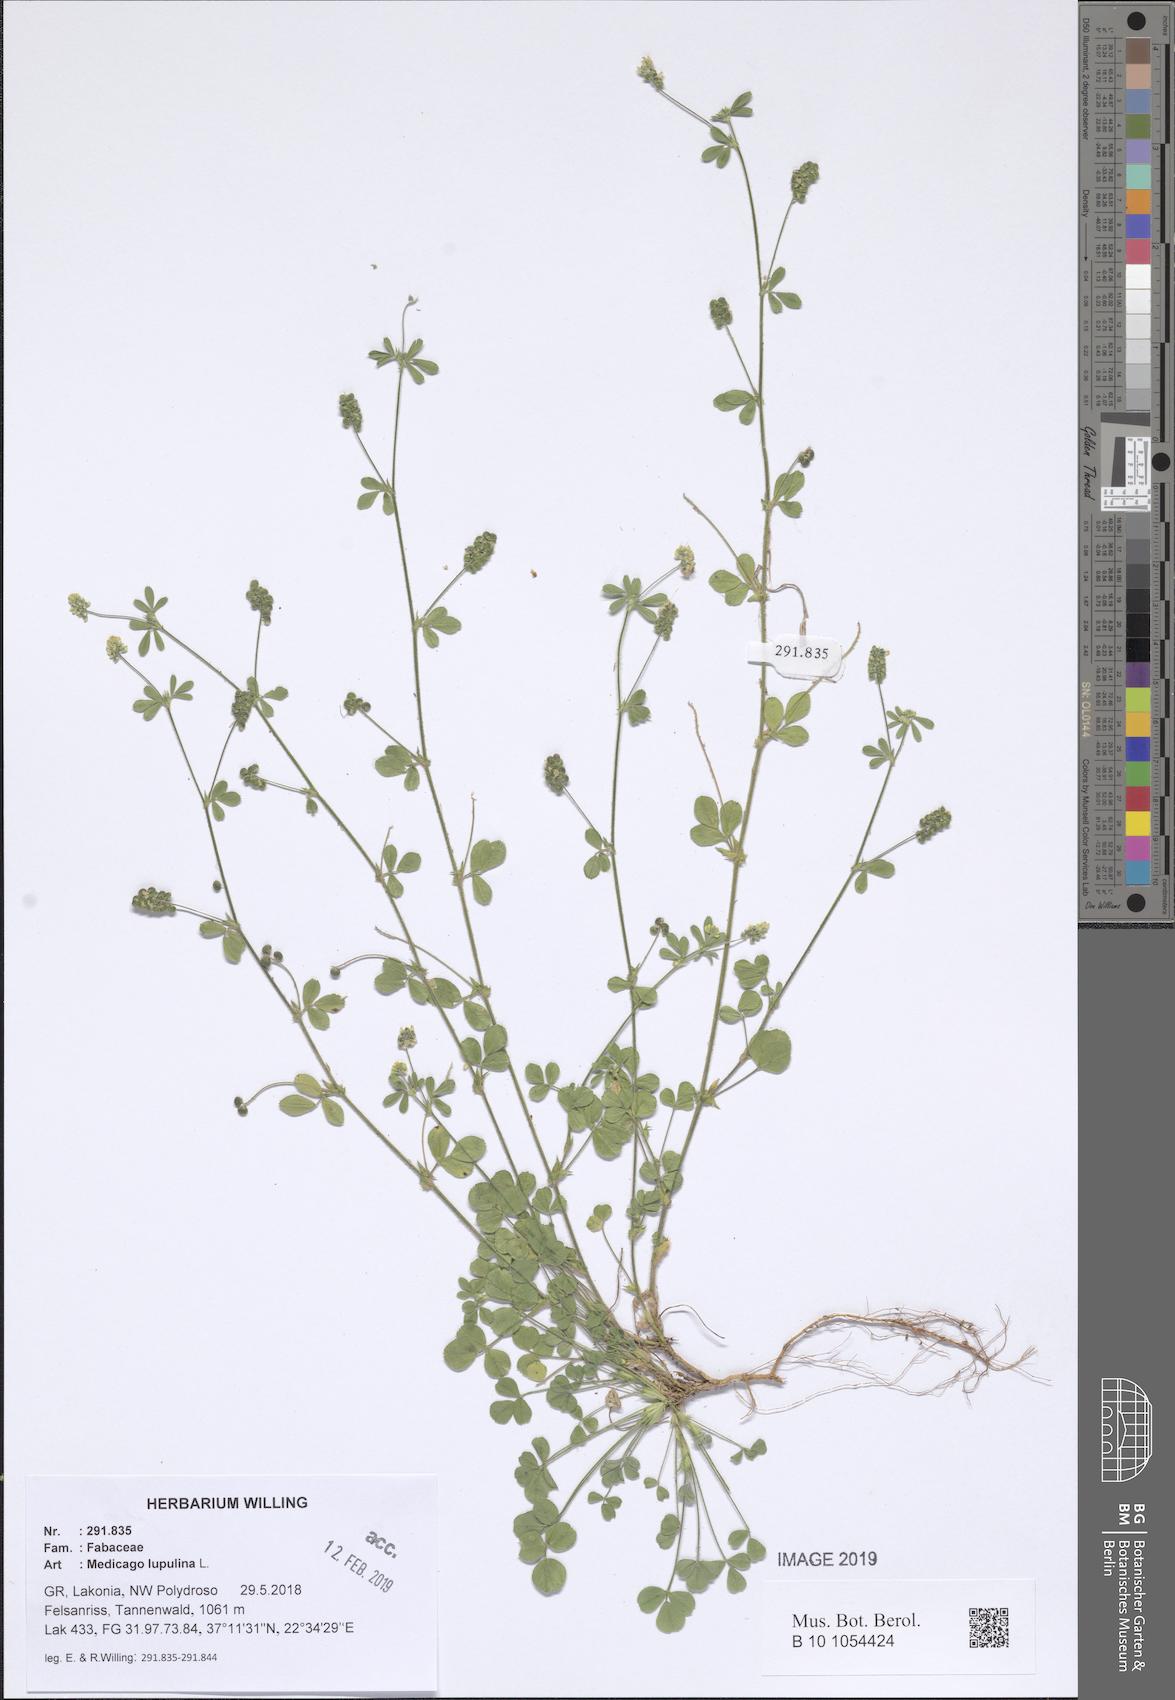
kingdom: Plantae
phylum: Tracheophyta
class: Magnoliopsida
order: Fabales
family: Fabaceae
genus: Medicago
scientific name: Medicago lupulina
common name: Black medick
